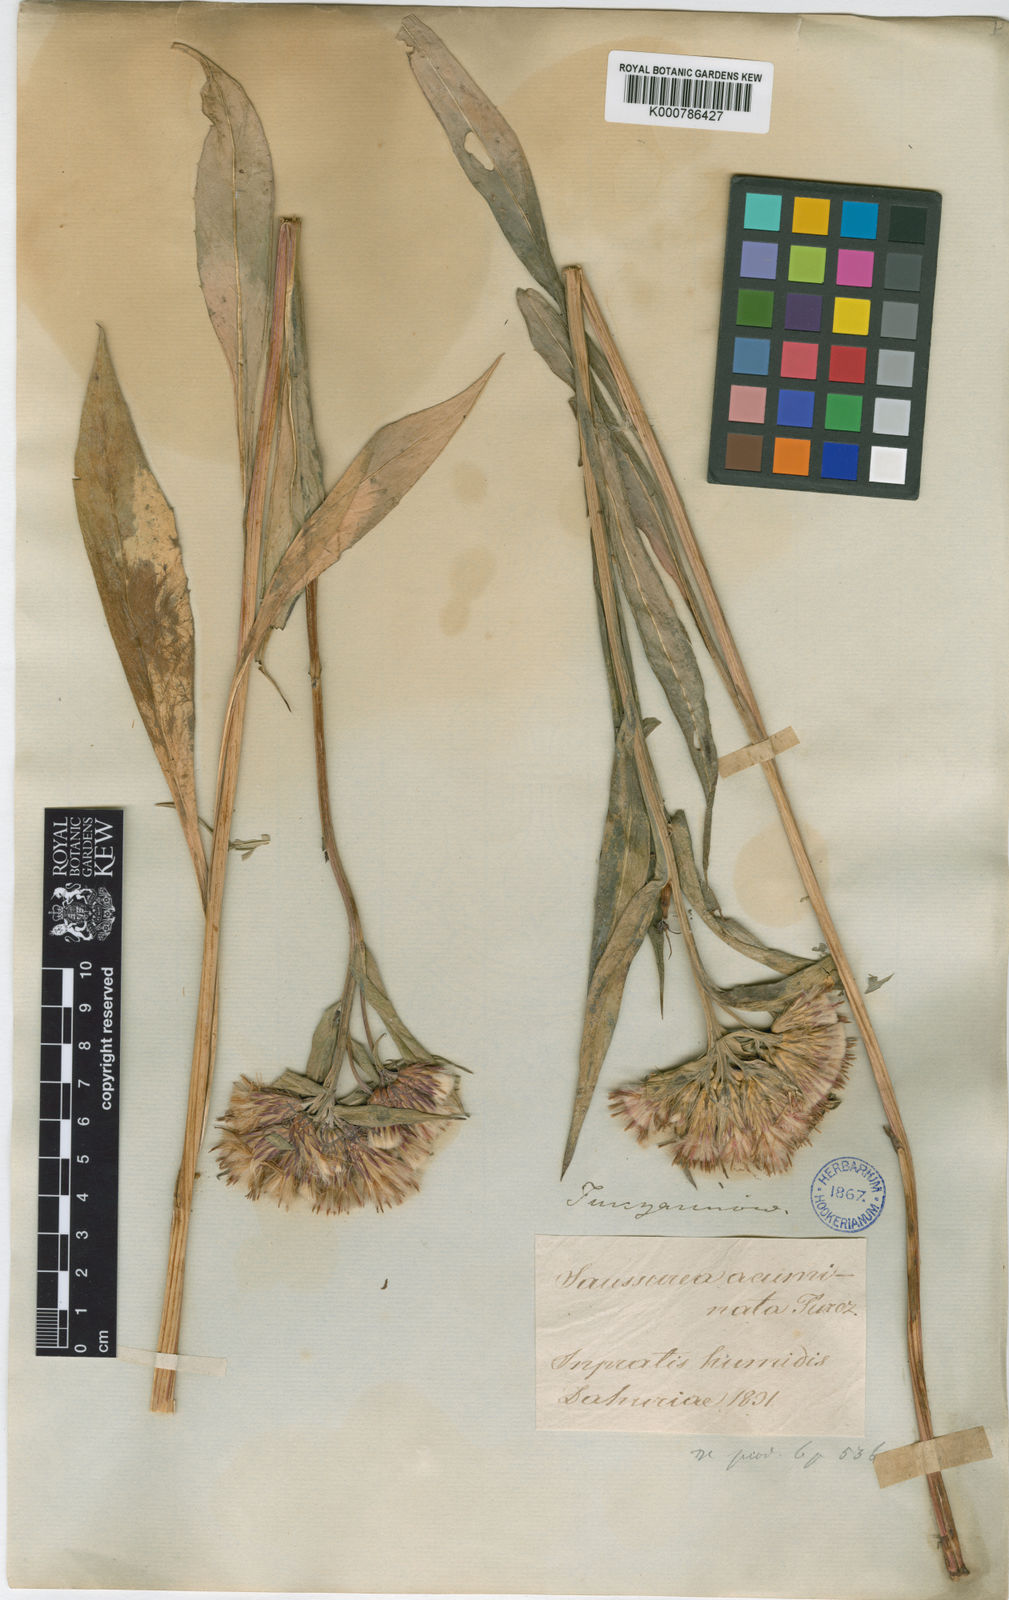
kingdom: Plantae
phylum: Tracheophyta
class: Magnoliopsida
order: Asterales
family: Asteraceae
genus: Saussurea
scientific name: Saussurea acuminata
